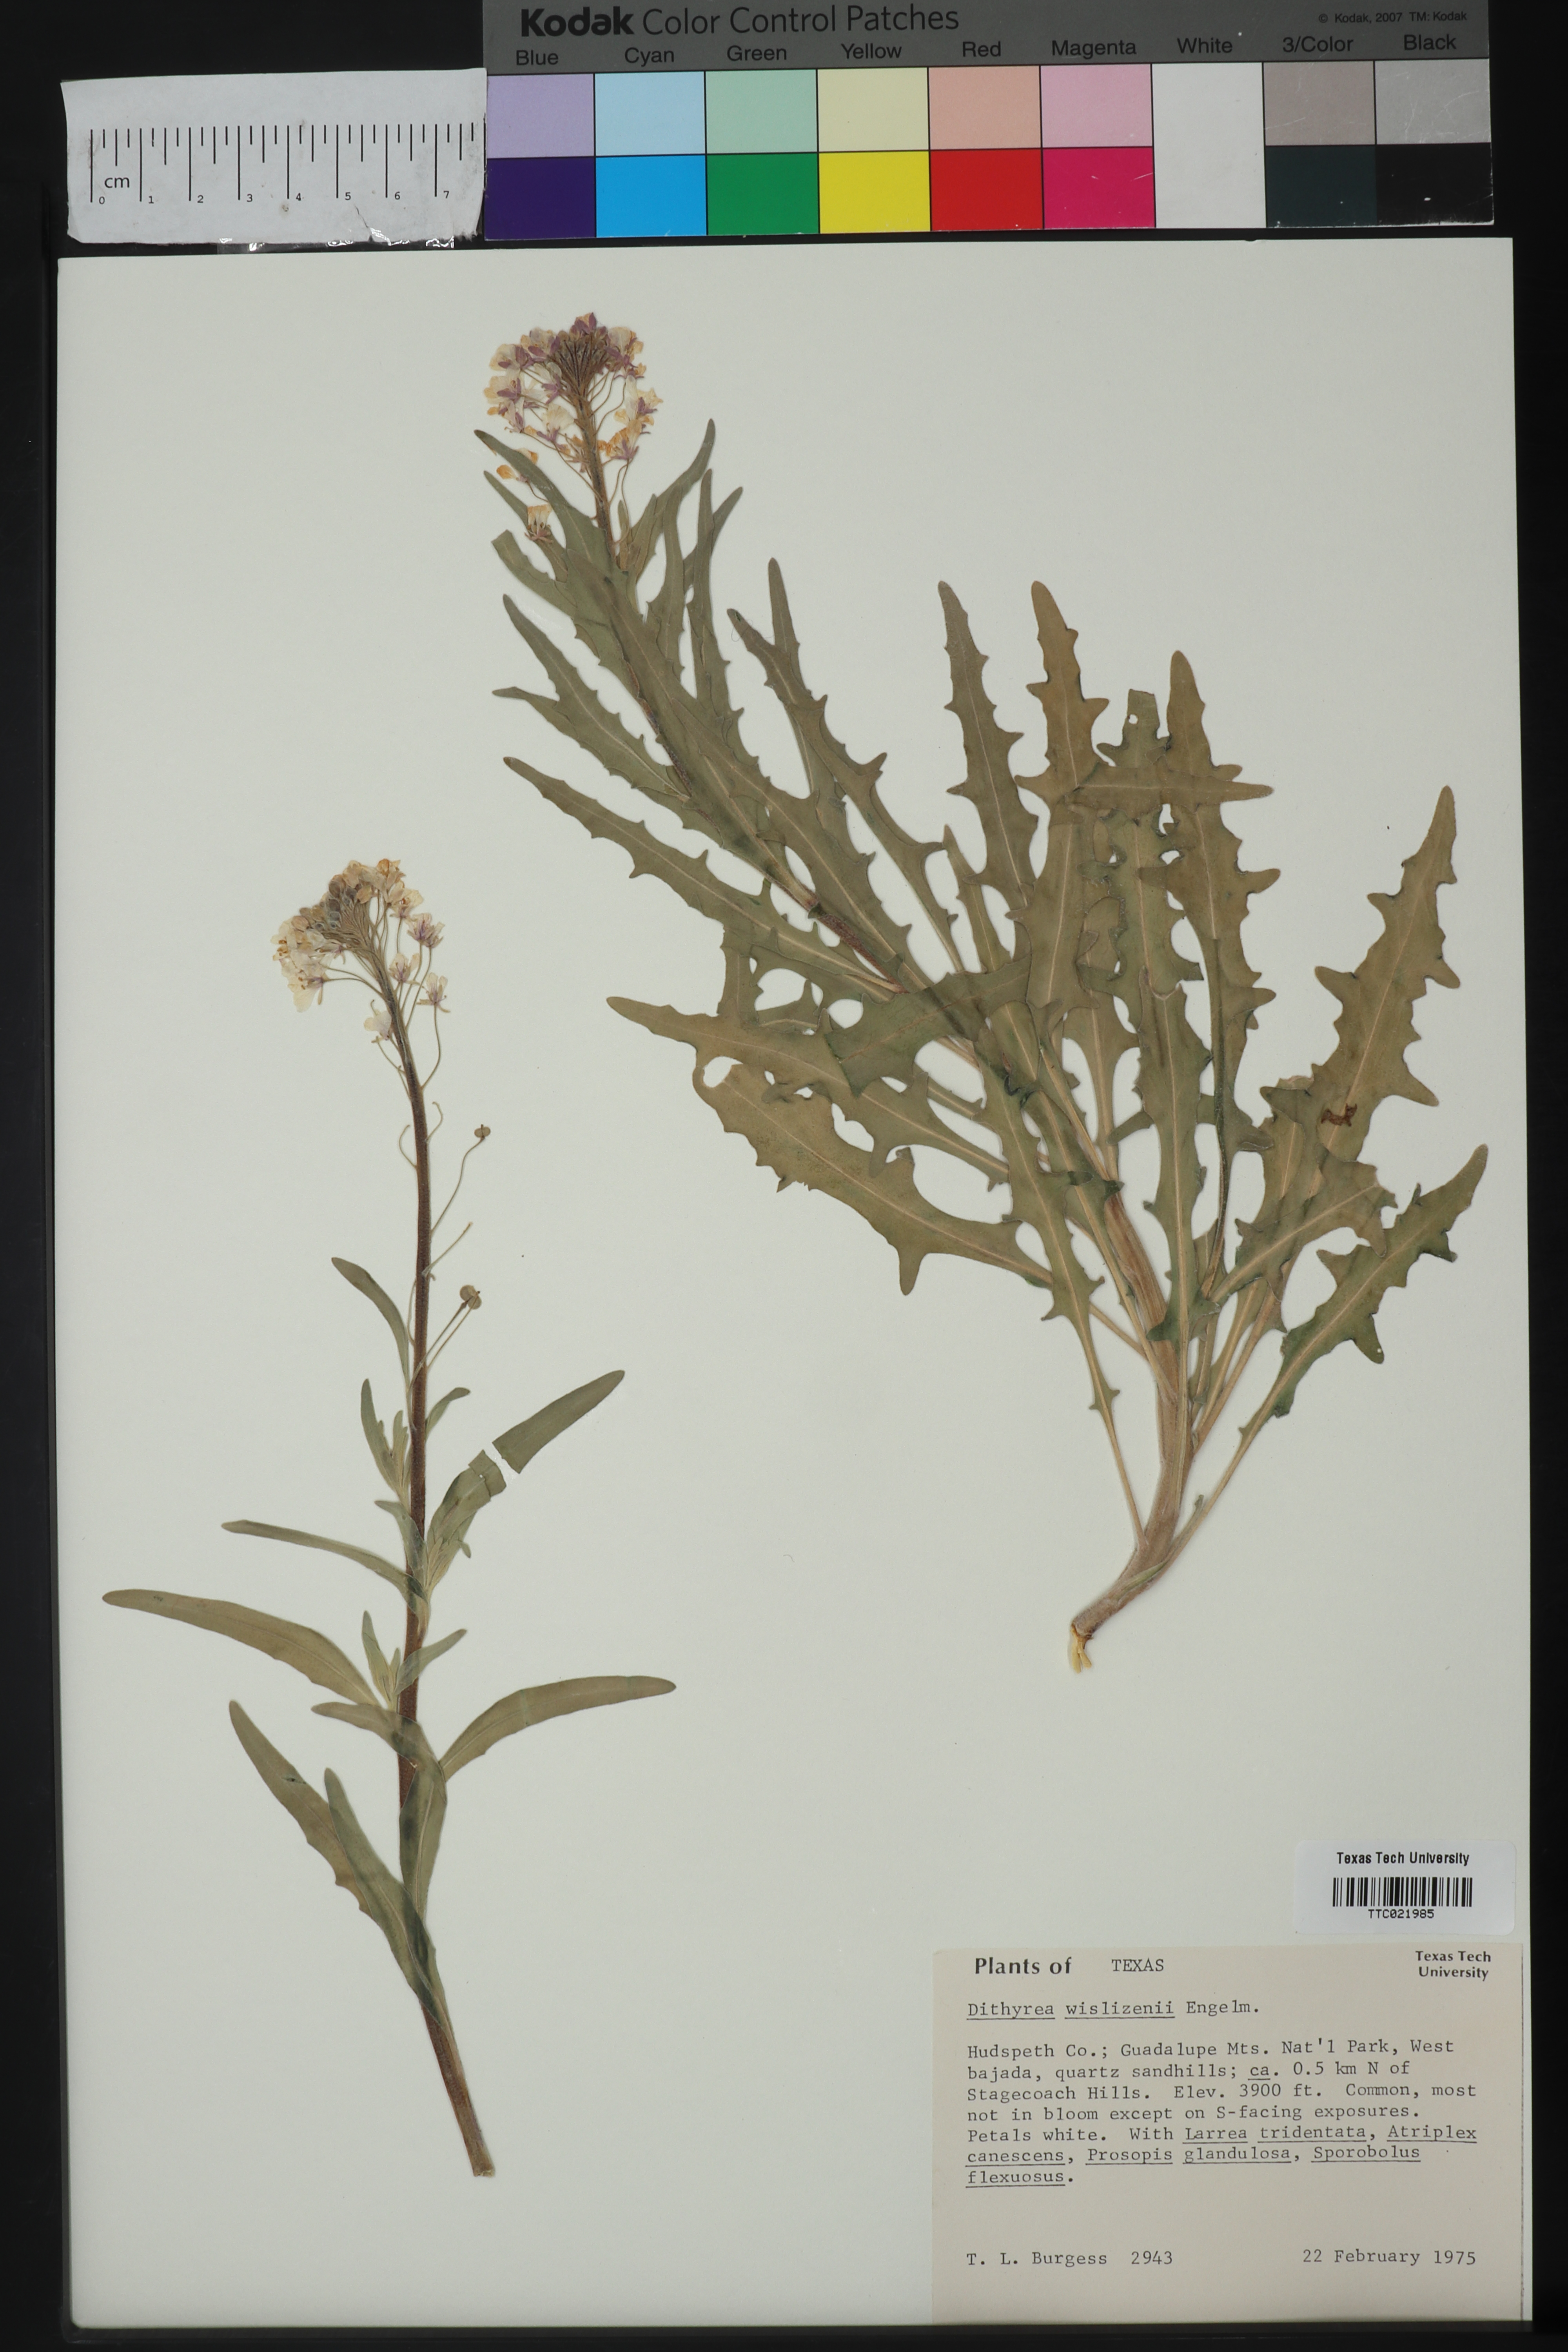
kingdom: Plantae
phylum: Tracheophyta
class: Magnoliopsida
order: Brassicales
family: Brassicaceae
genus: Dimorphocarpa
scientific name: Dimorphocarpa wislizenii
